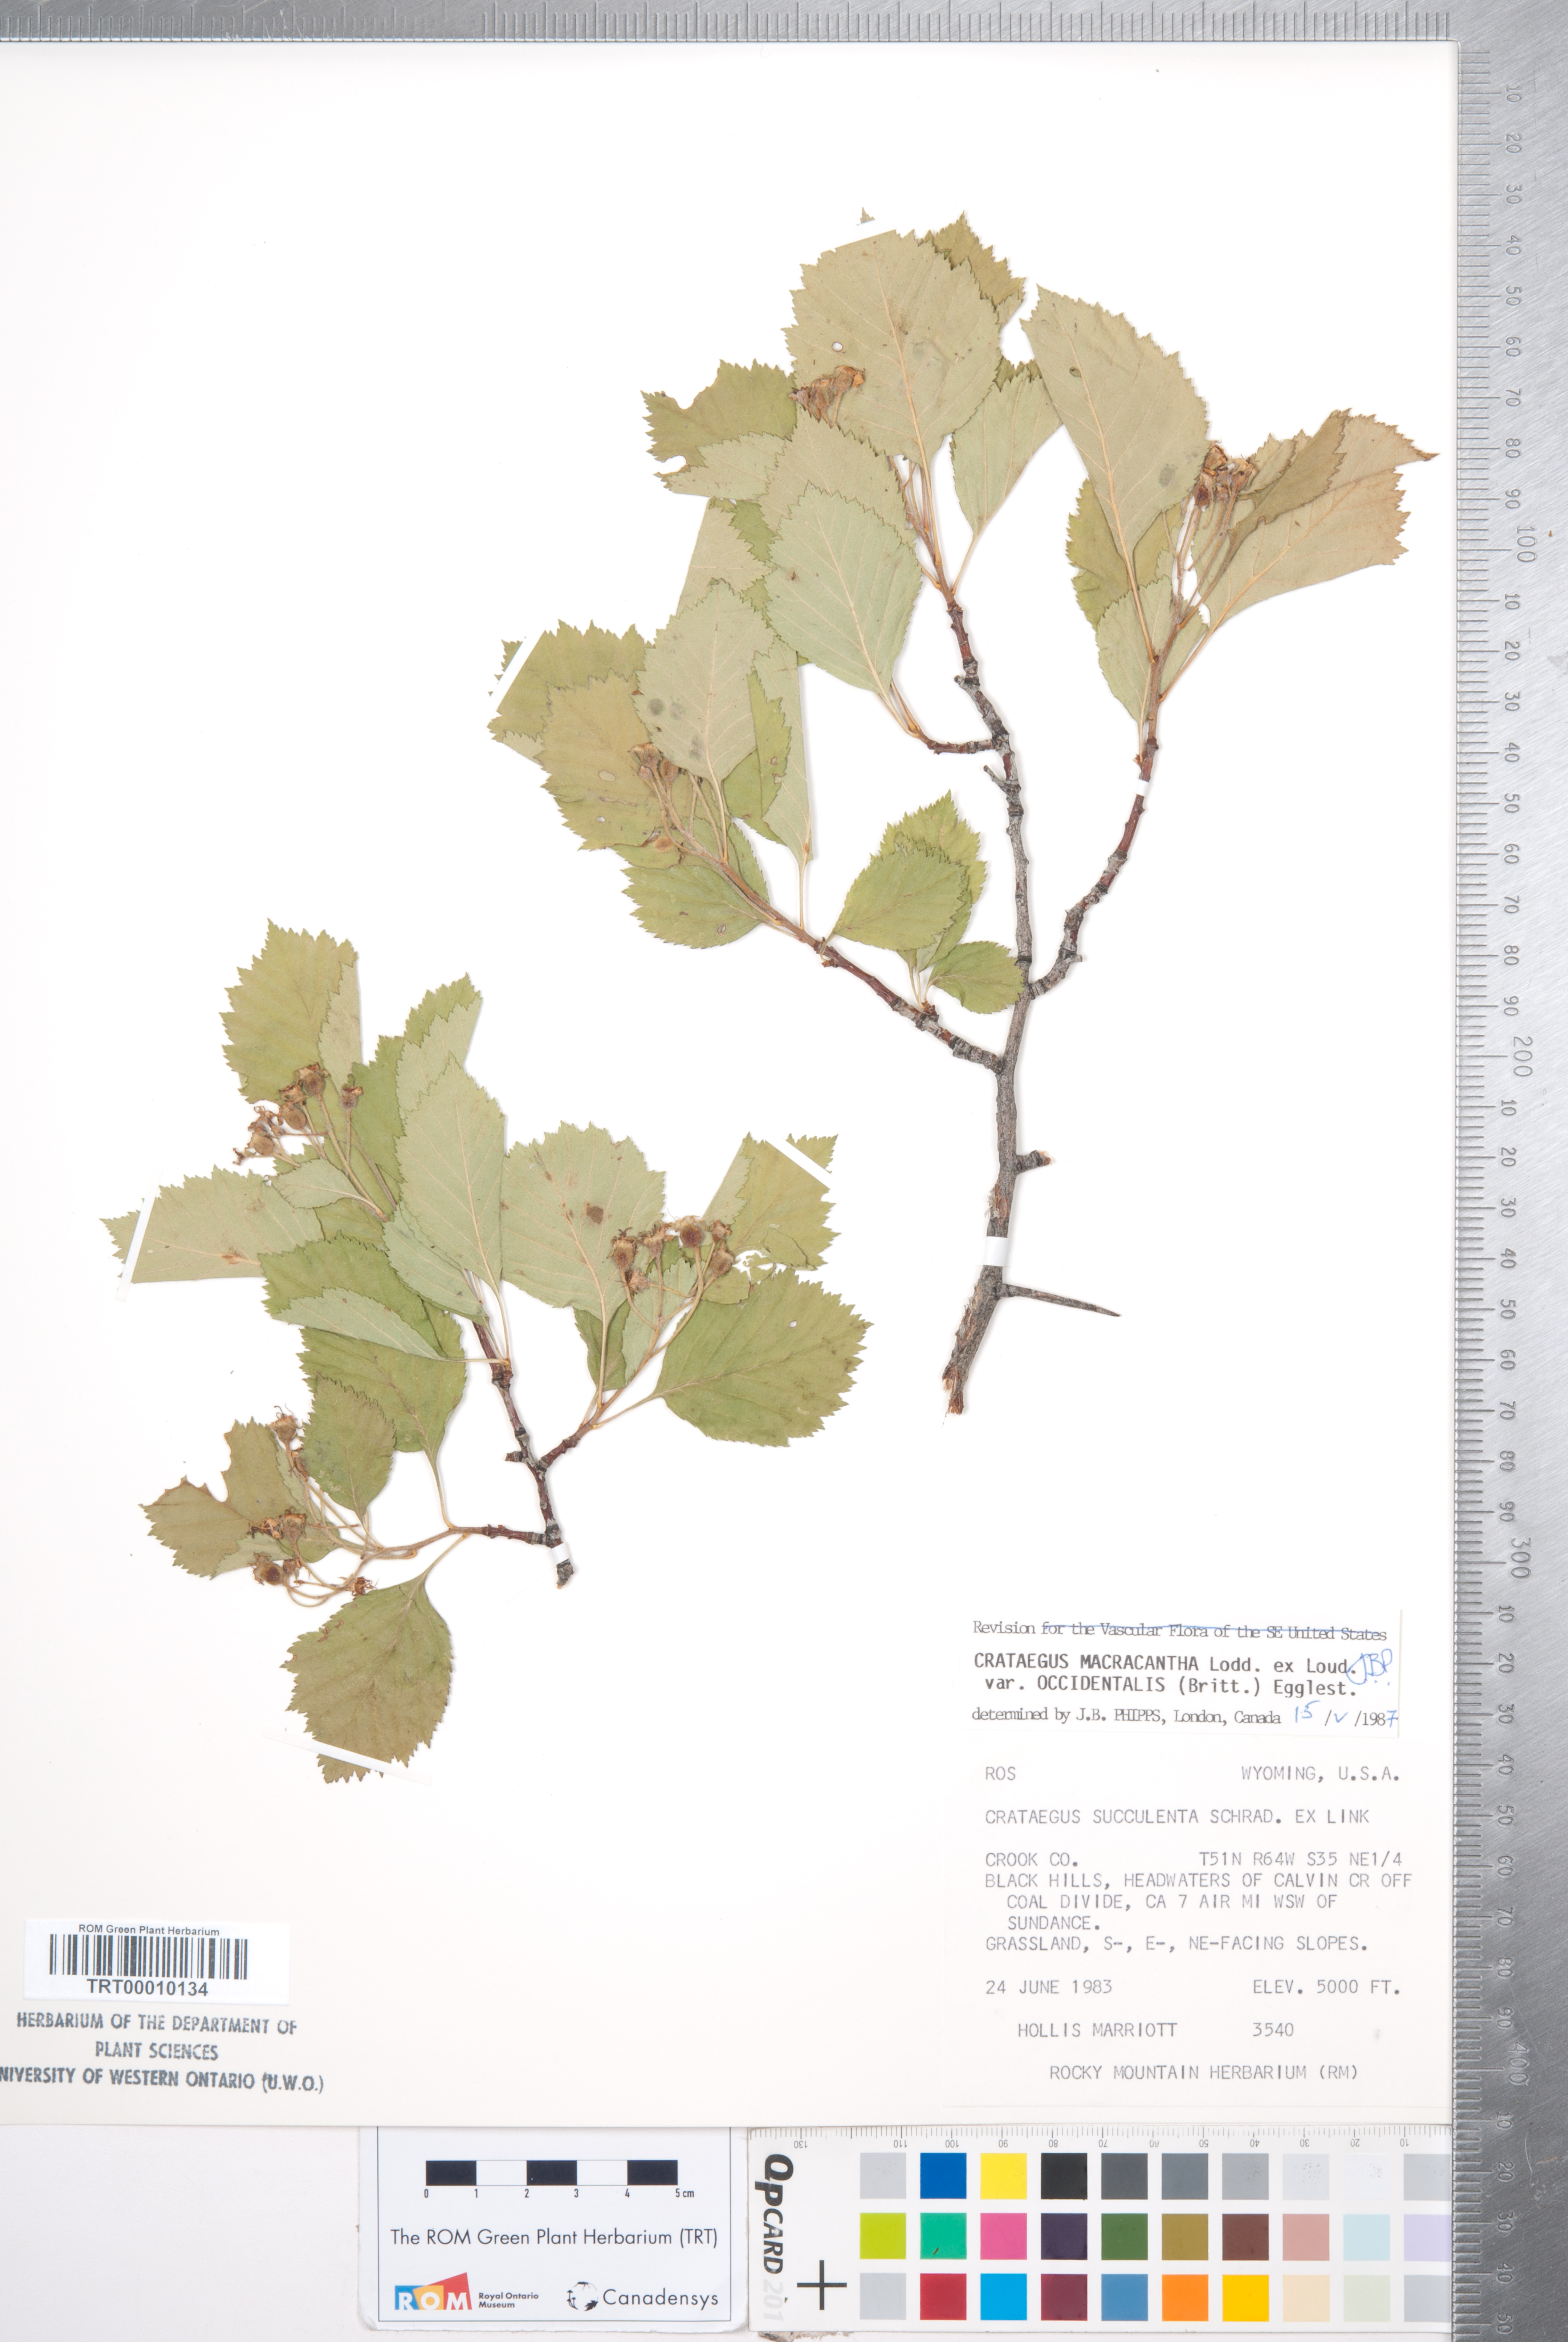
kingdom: Plantae
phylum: Tracheophyta
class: Magnoliopsida
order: Rosales
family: Rosaceae
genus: Crataegus
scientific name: Crataegus macracantha
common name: Large-thorn hawthorn
